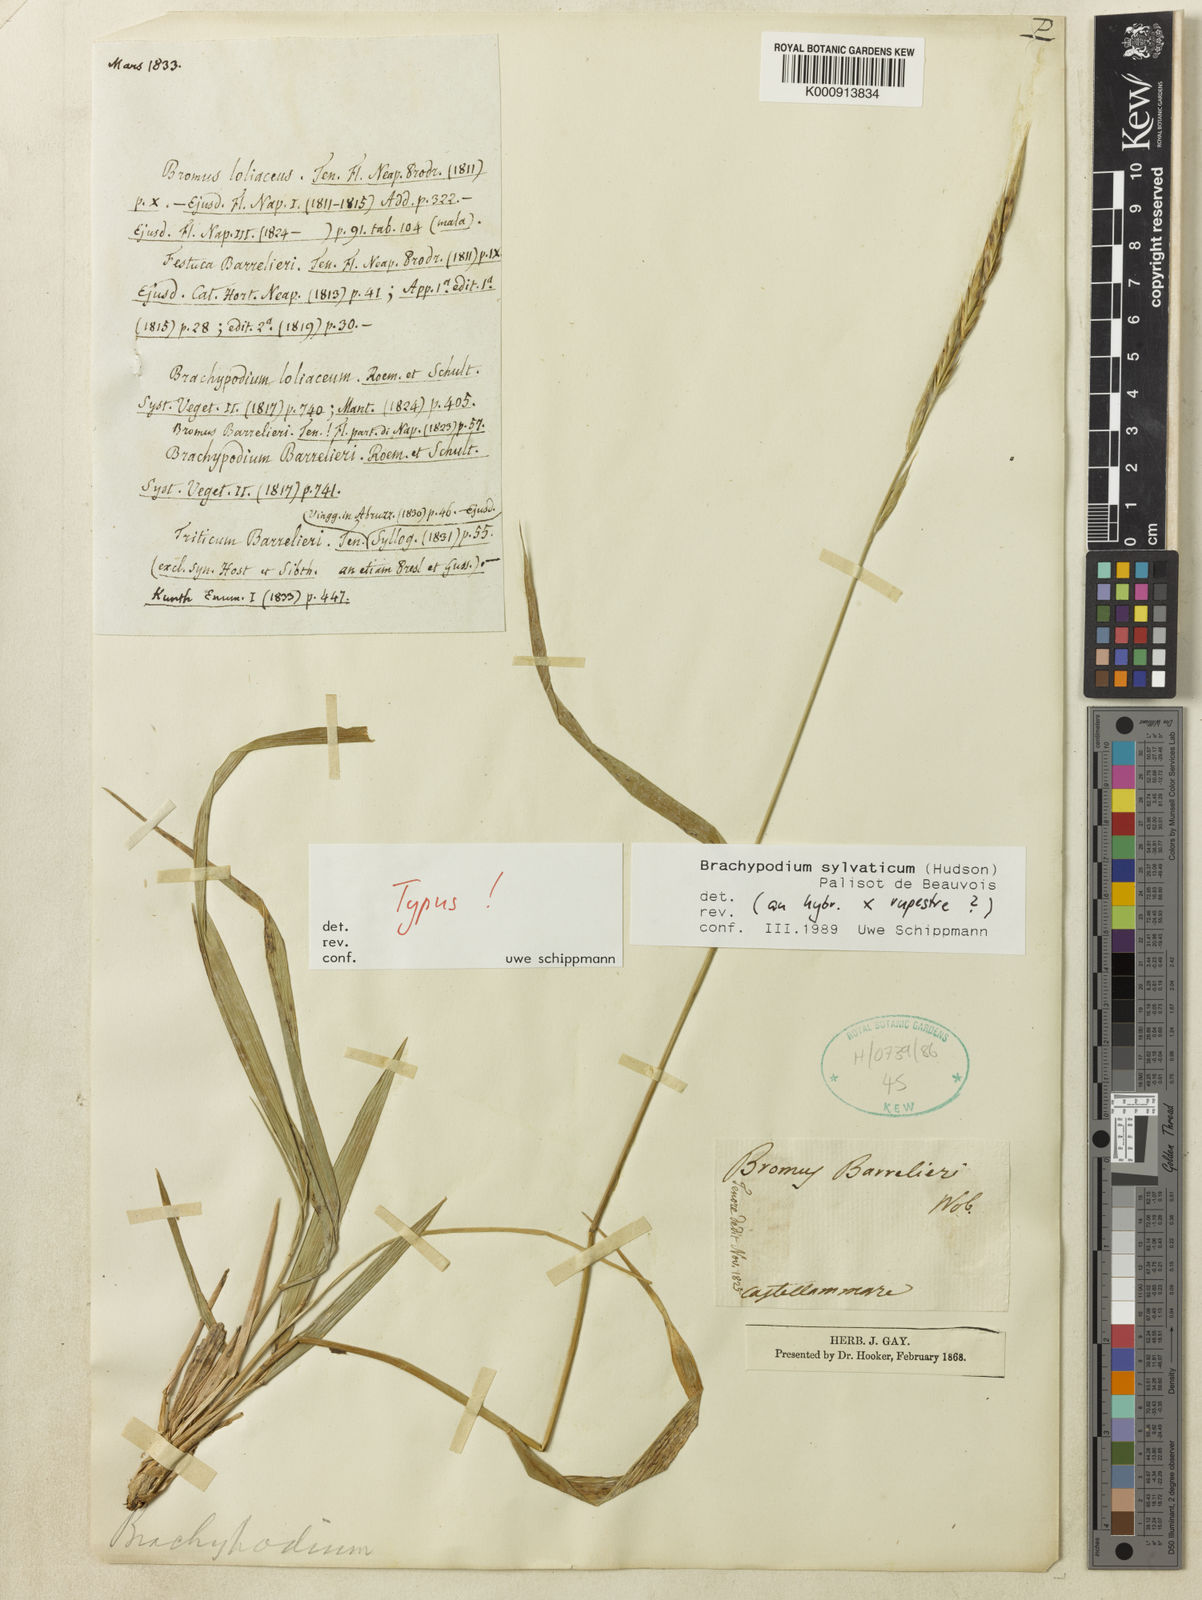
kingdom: Plantae
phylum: Tracheophyta
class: Liliopsida
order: Poales
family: Poaceae
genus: Brachypodium
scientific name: Brachypodium sylvaticum
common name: False-brome
